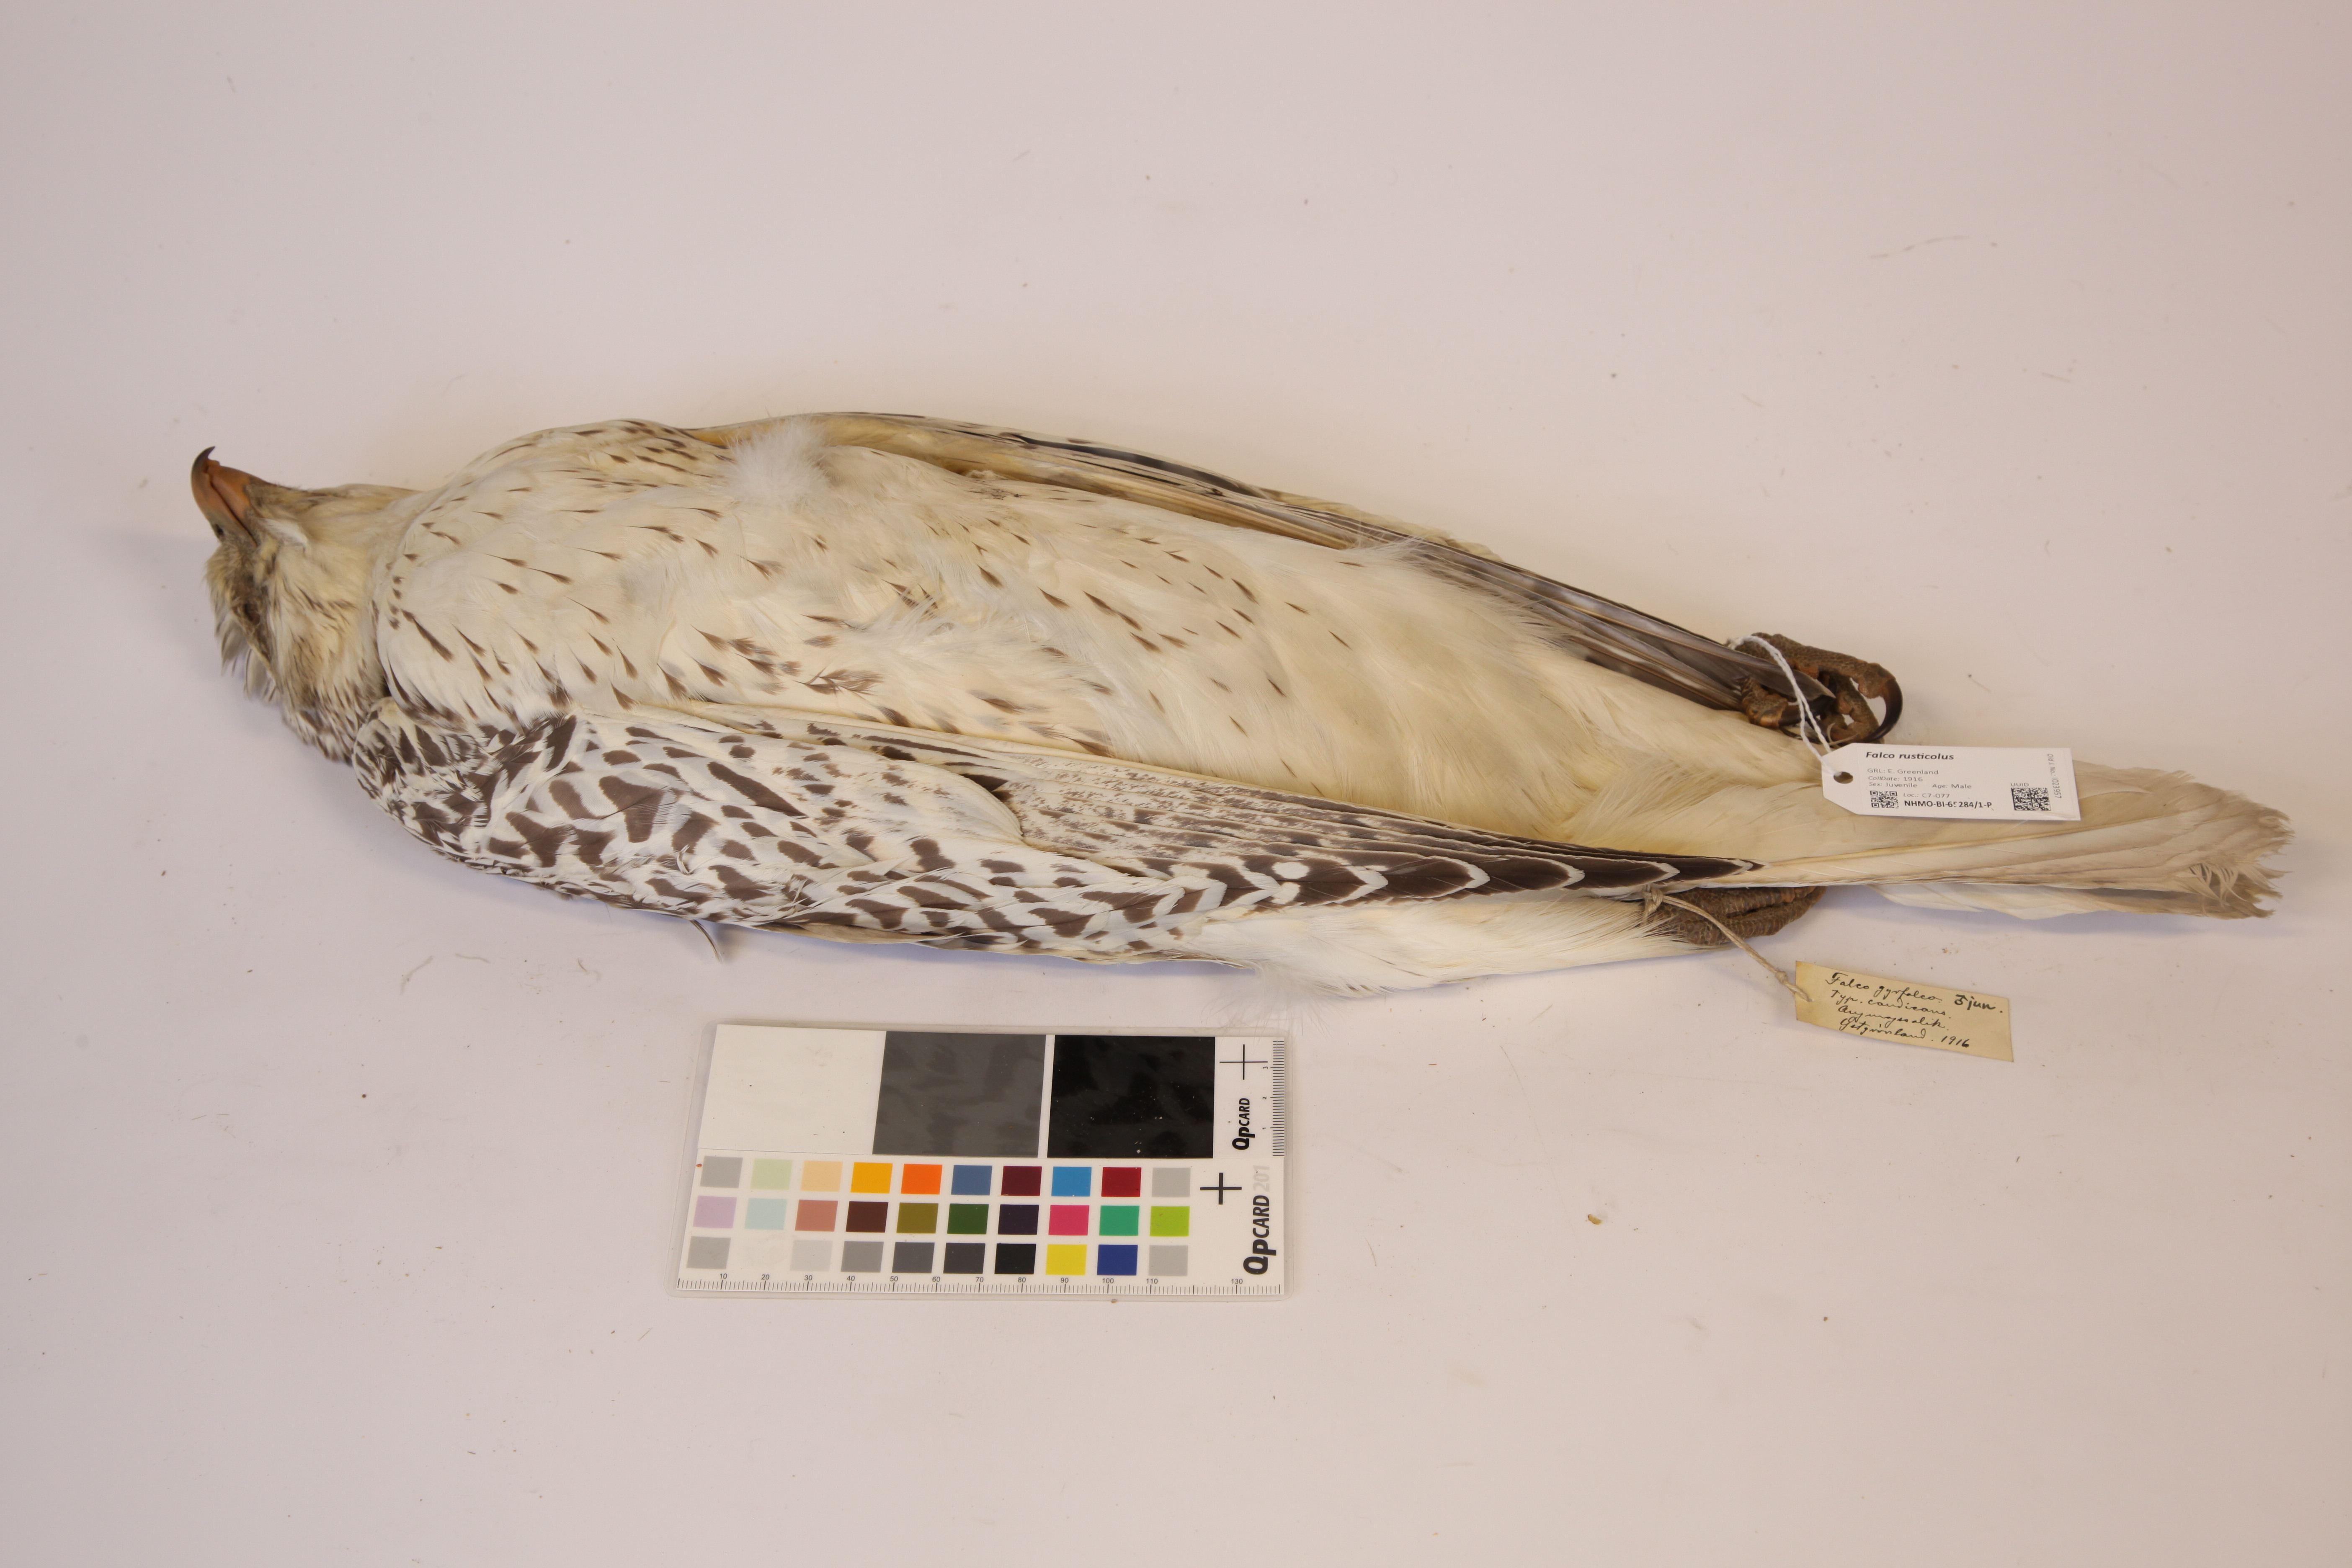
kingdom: Animalia
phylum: Chordata
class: Aves
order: Falconiformes
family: Falconidae
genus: Falco
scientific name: Falco rusticolus
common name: Gyrfalcon
